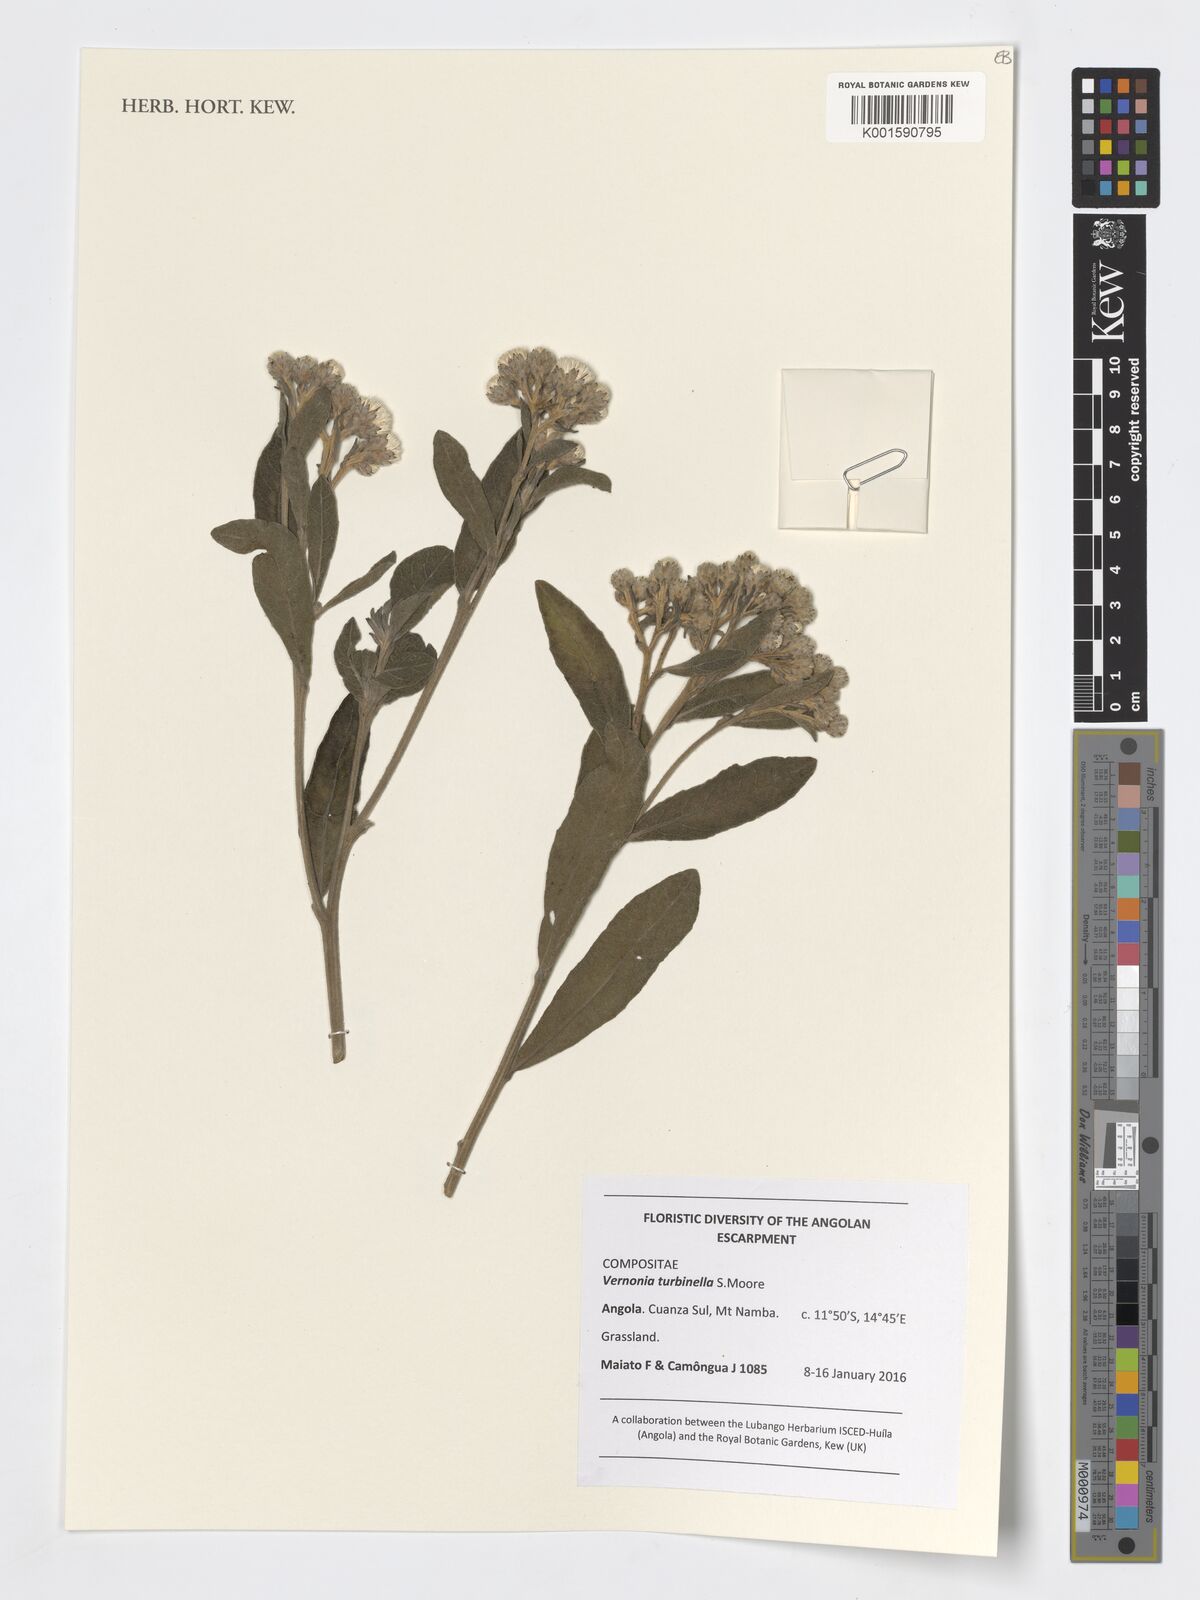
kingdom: Plantae
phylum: Tracheophyta
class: Magnoliopsida
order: Asterales
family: Asteraceae
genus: Lampropappus
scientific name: Lampropappus turbinellus
